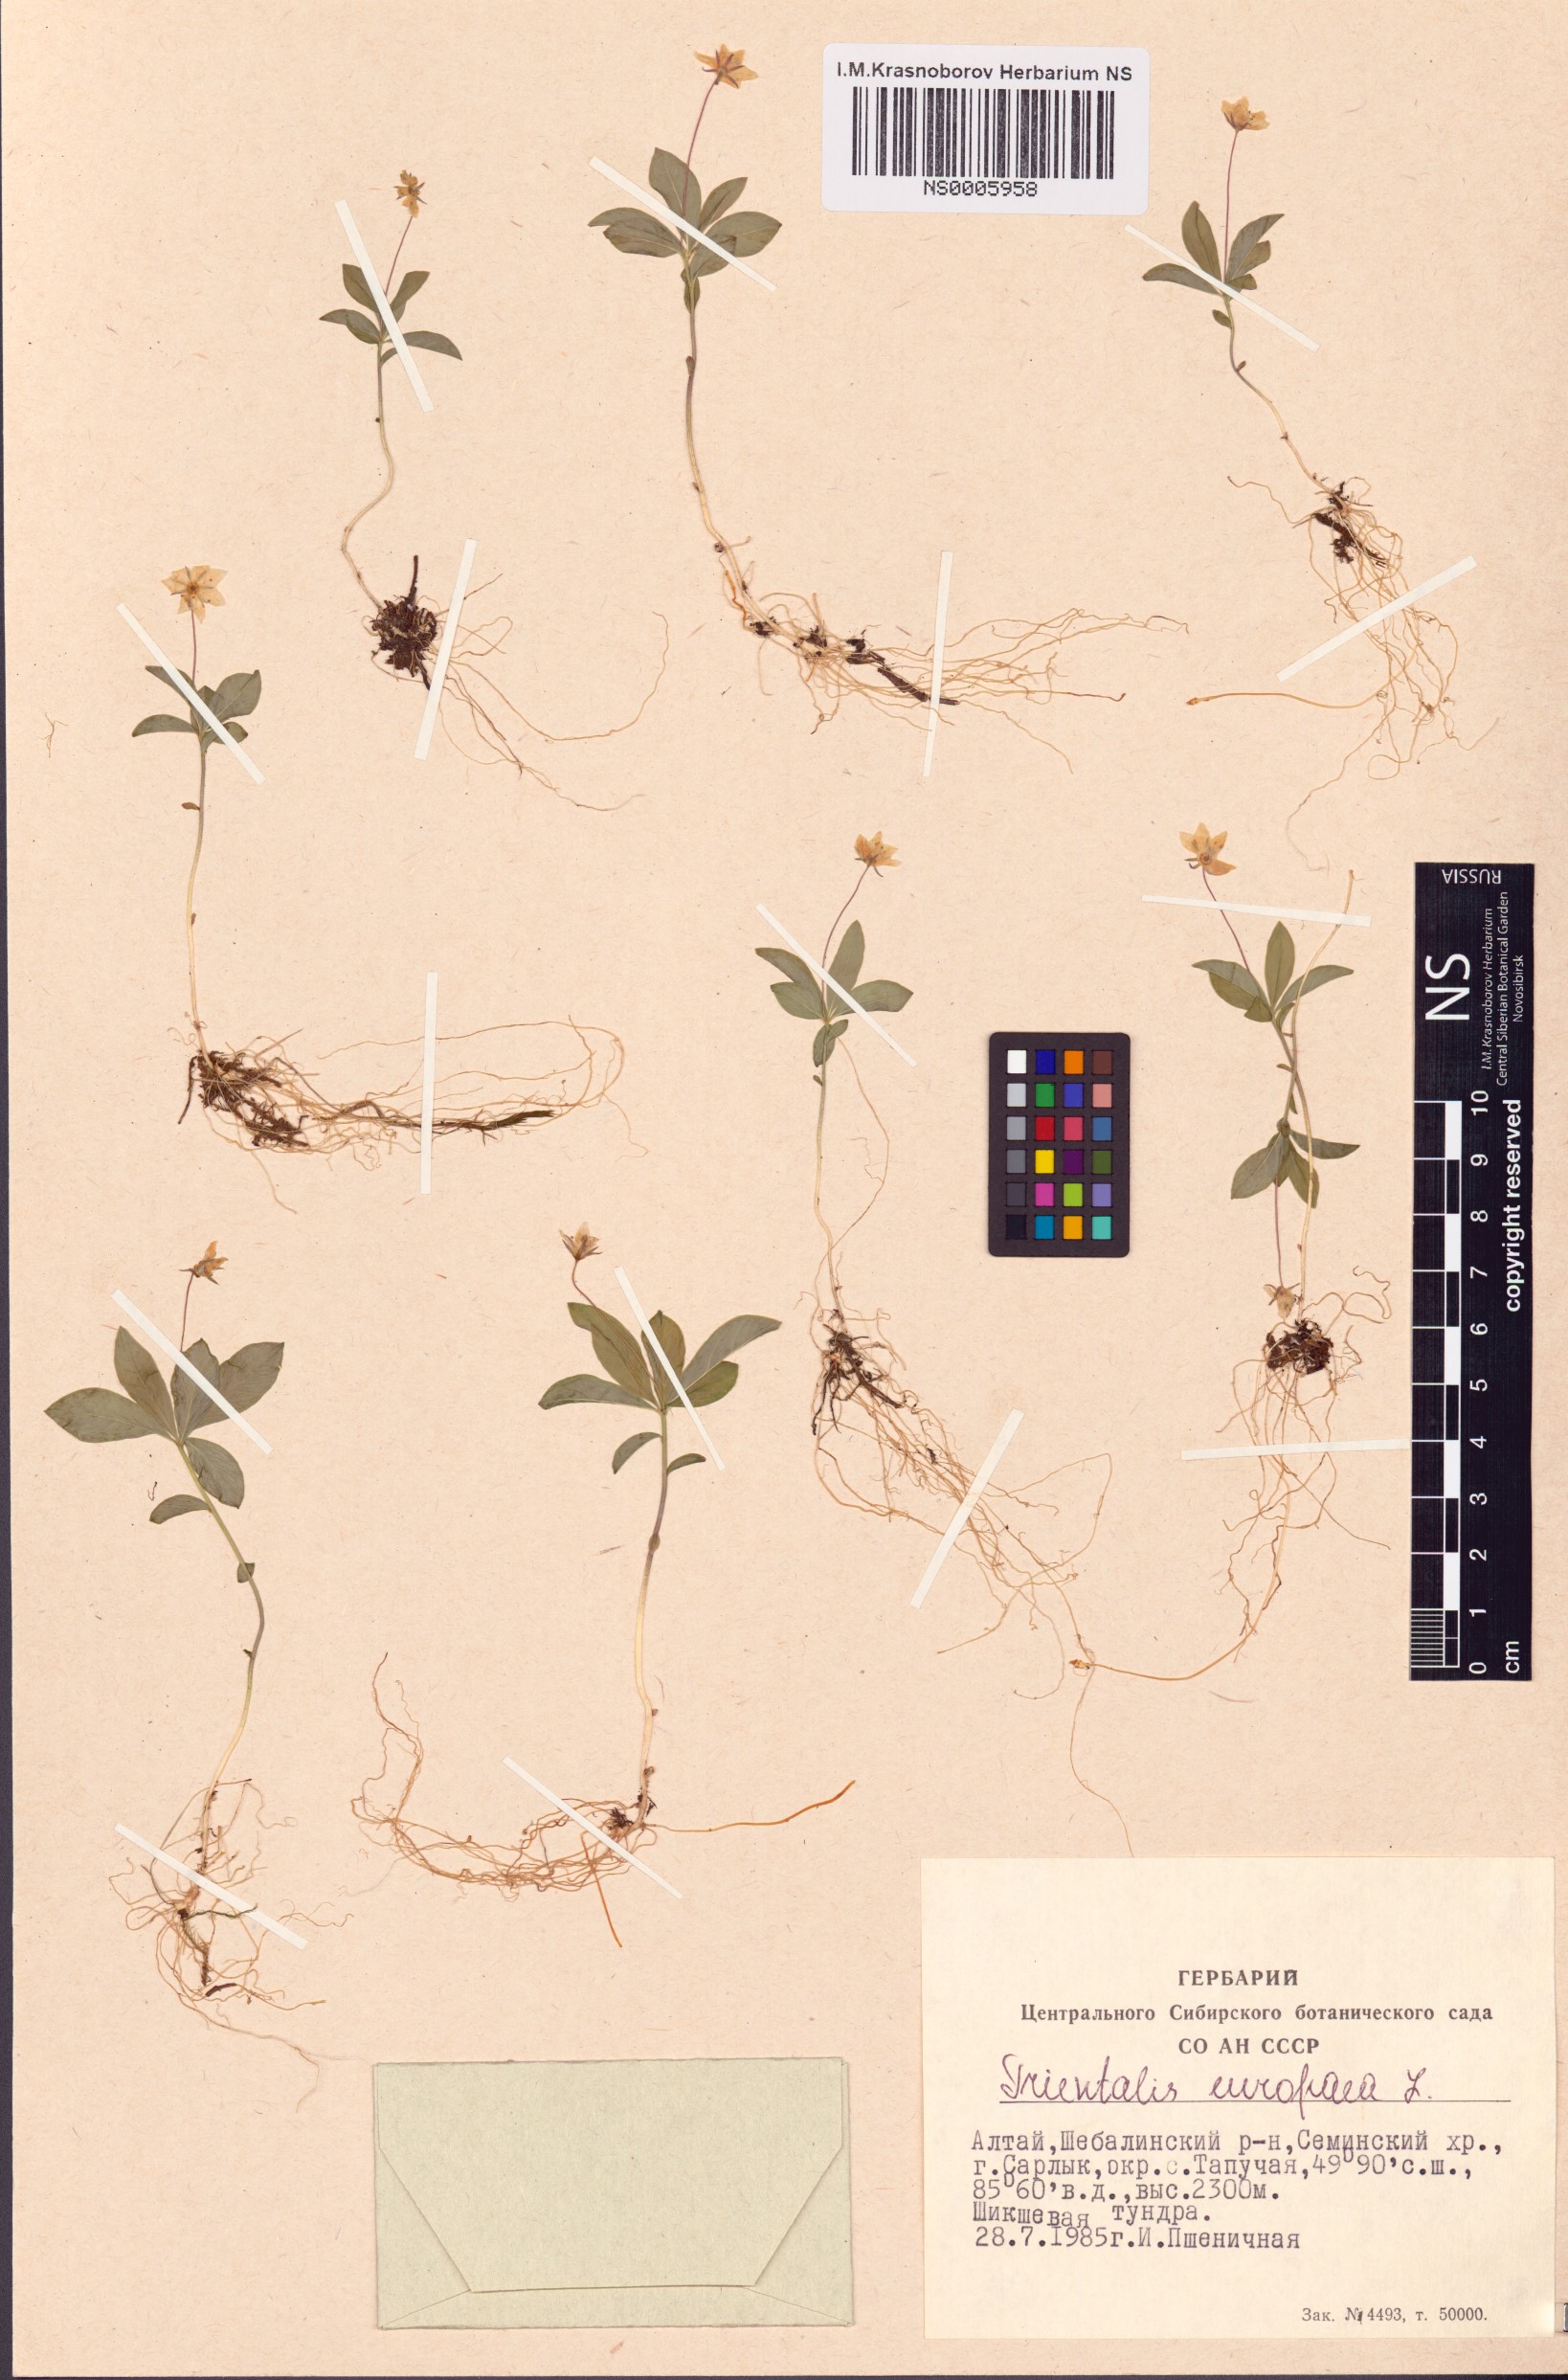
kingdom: Plantae
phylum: Tracheophyta
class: Magnoliopsida
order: Ericales
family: Primulaceae
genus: Lysimachia
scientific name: Lysimachia europaea
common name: Arctic starflower
